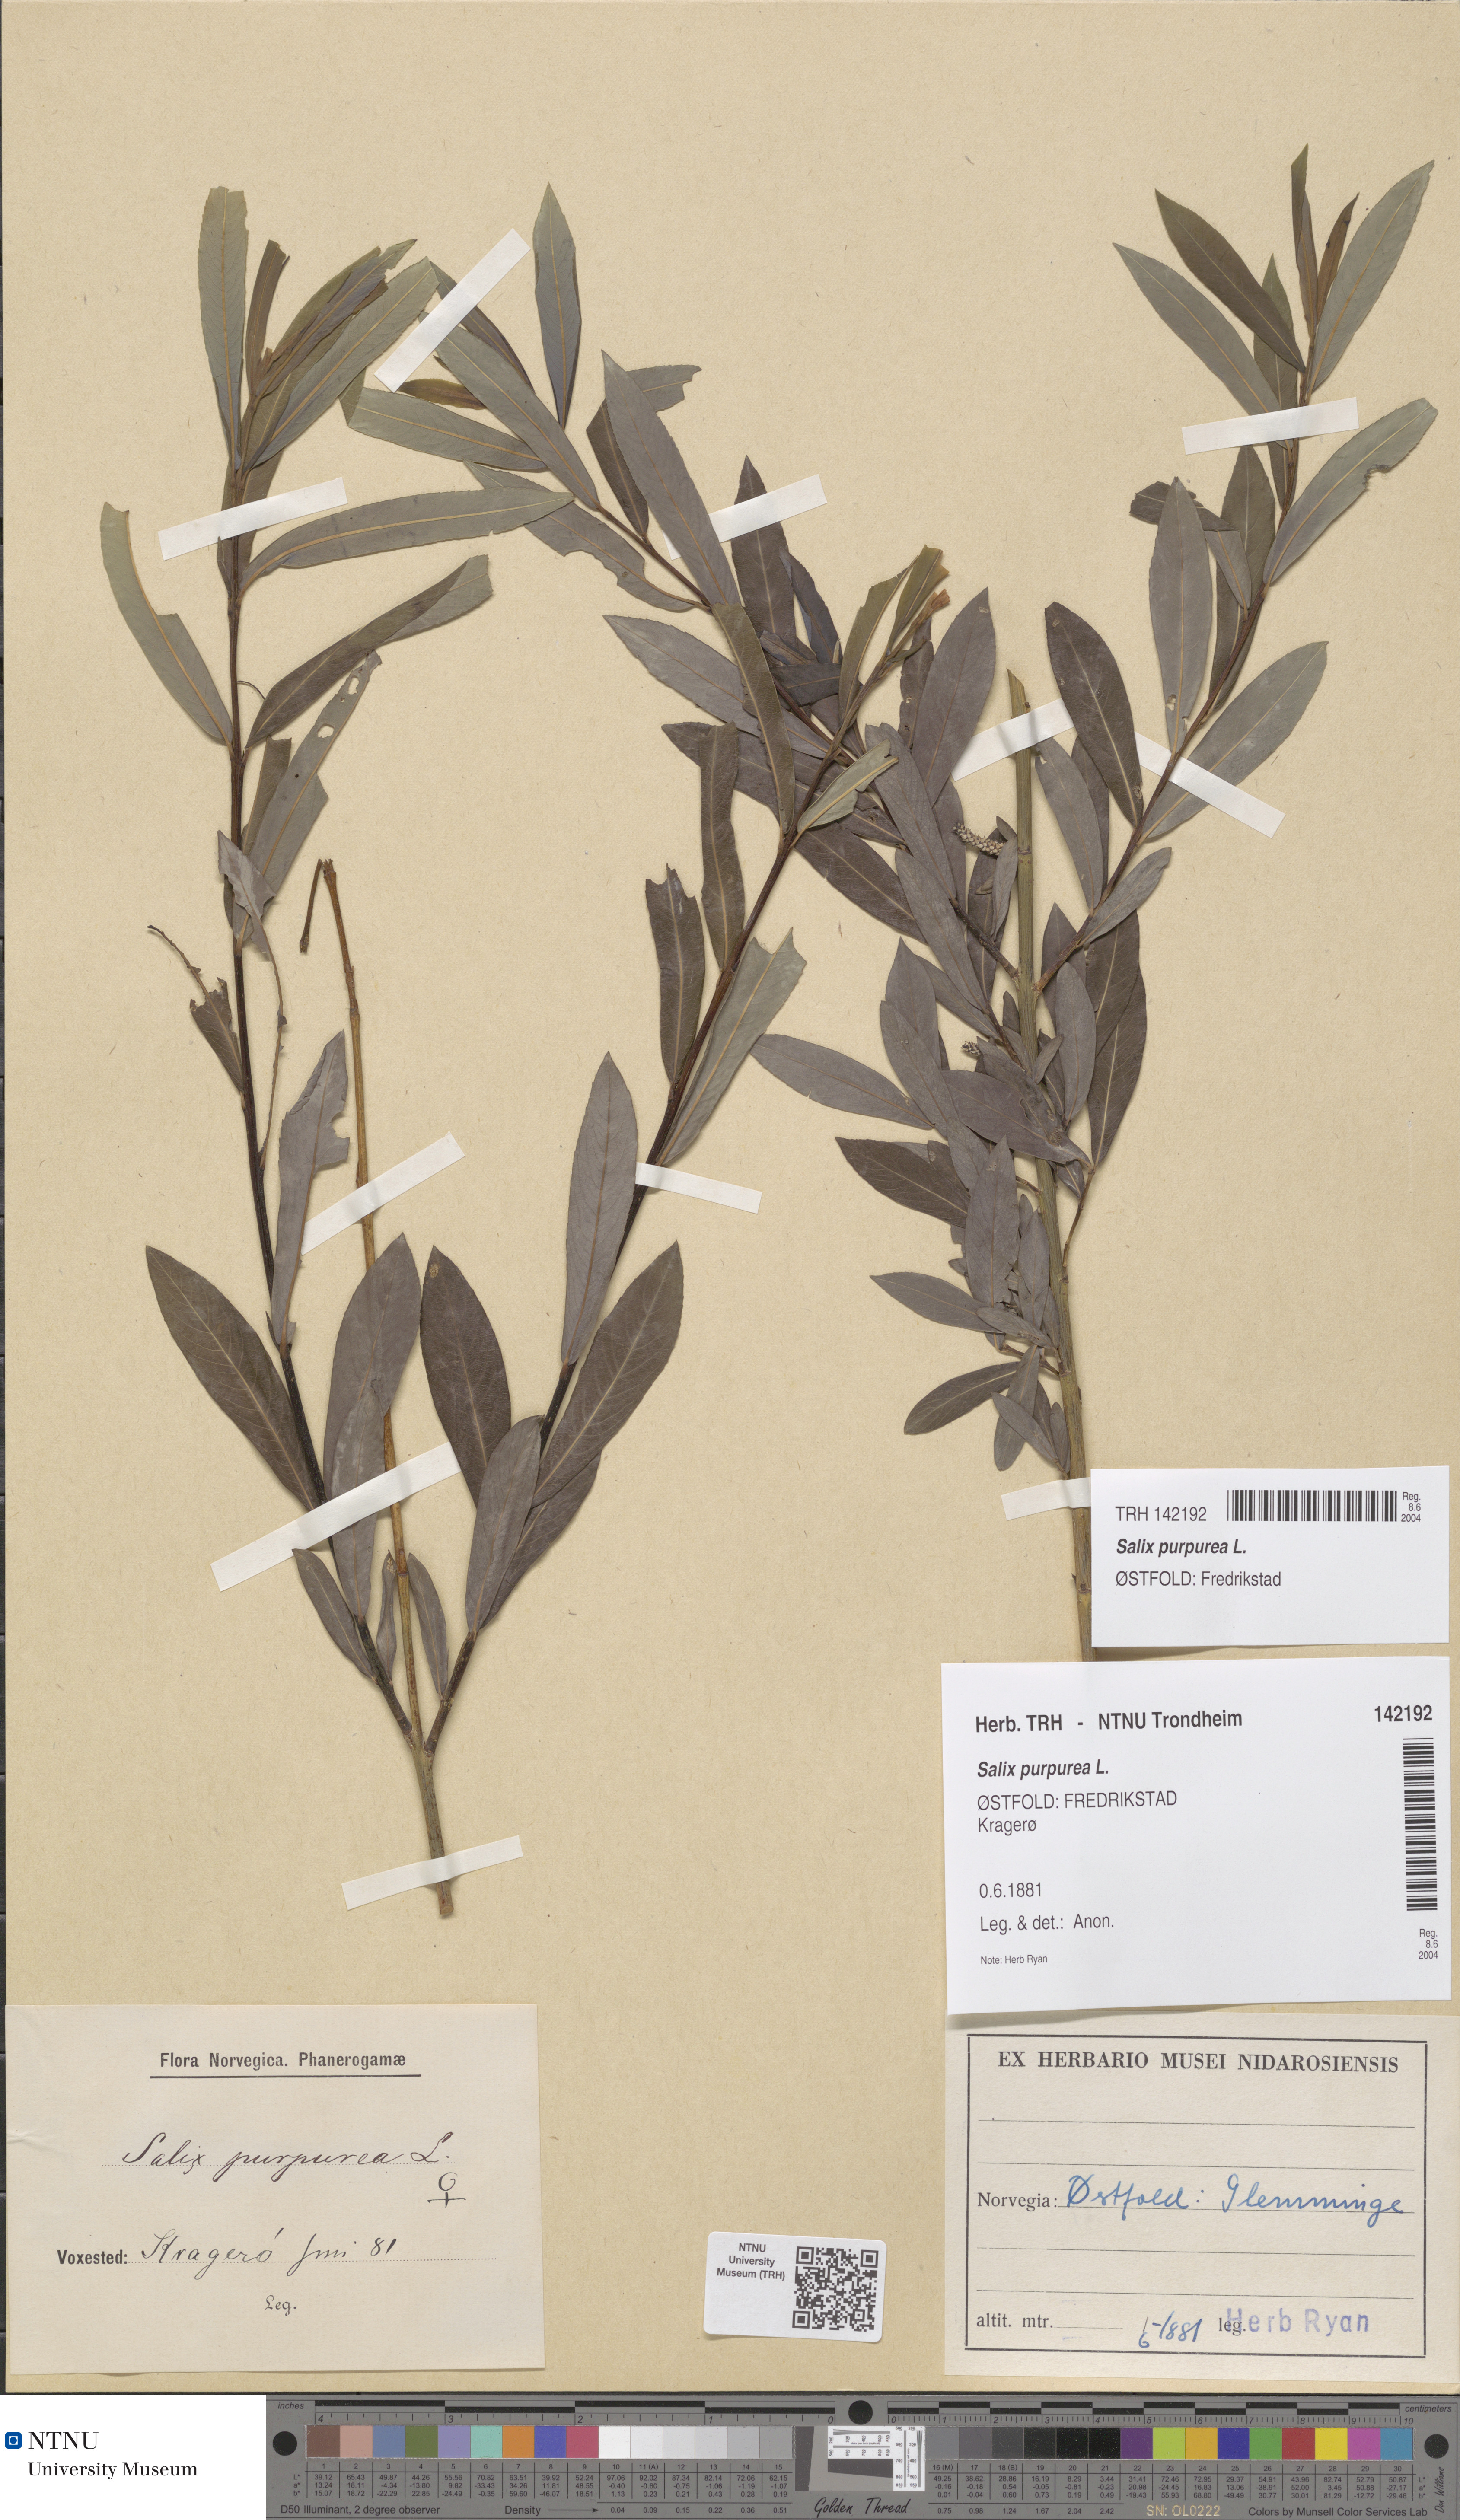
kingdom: Plantae
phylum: Tracheophyta
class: Magnoliopsida
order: Malpighiales
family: Salicaceae
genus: Salix
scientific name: Salix purpurea
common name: Purple willow
